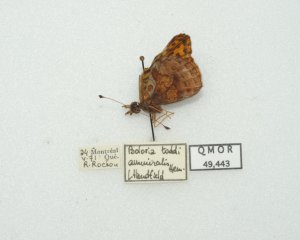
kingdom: Animalia
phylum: Arthropoda
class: Insecta
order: Lepidoptera
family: Nymphalidae
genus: Clossiana
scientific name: Clossiana toddi
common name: Meadow Fritillary
